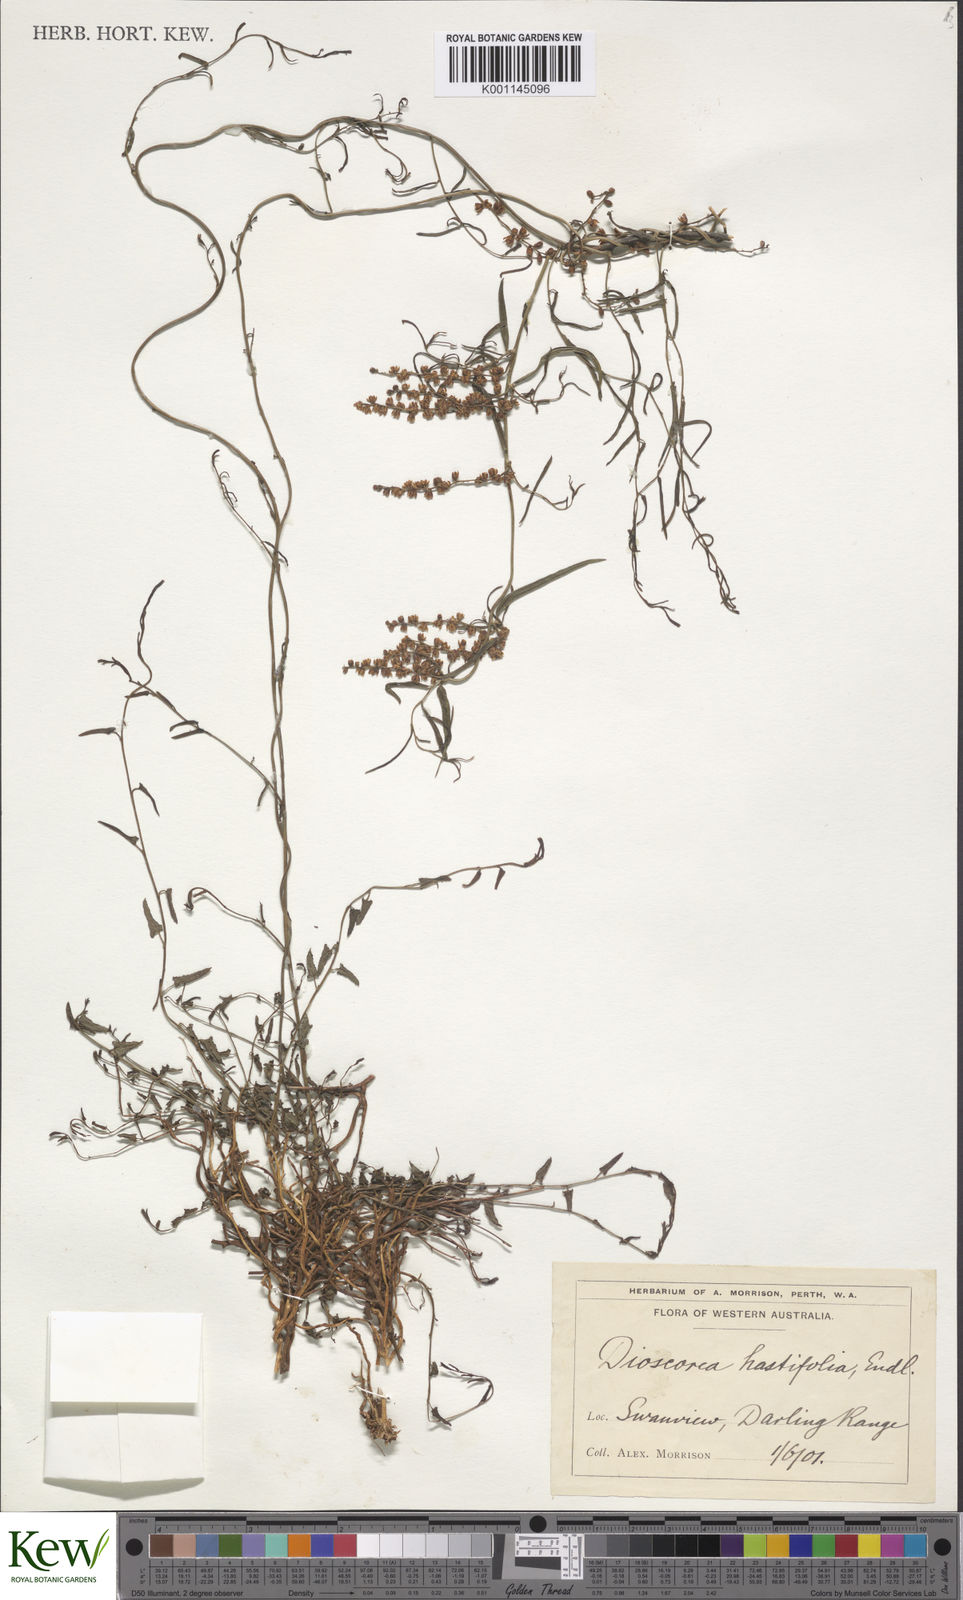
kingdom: Plantae
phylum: Tracheophyta
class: Liliopsida
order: Dioscoreales
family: Dioscoreaceae
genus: Dioscorea
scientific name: Dioscorea hastifolia
